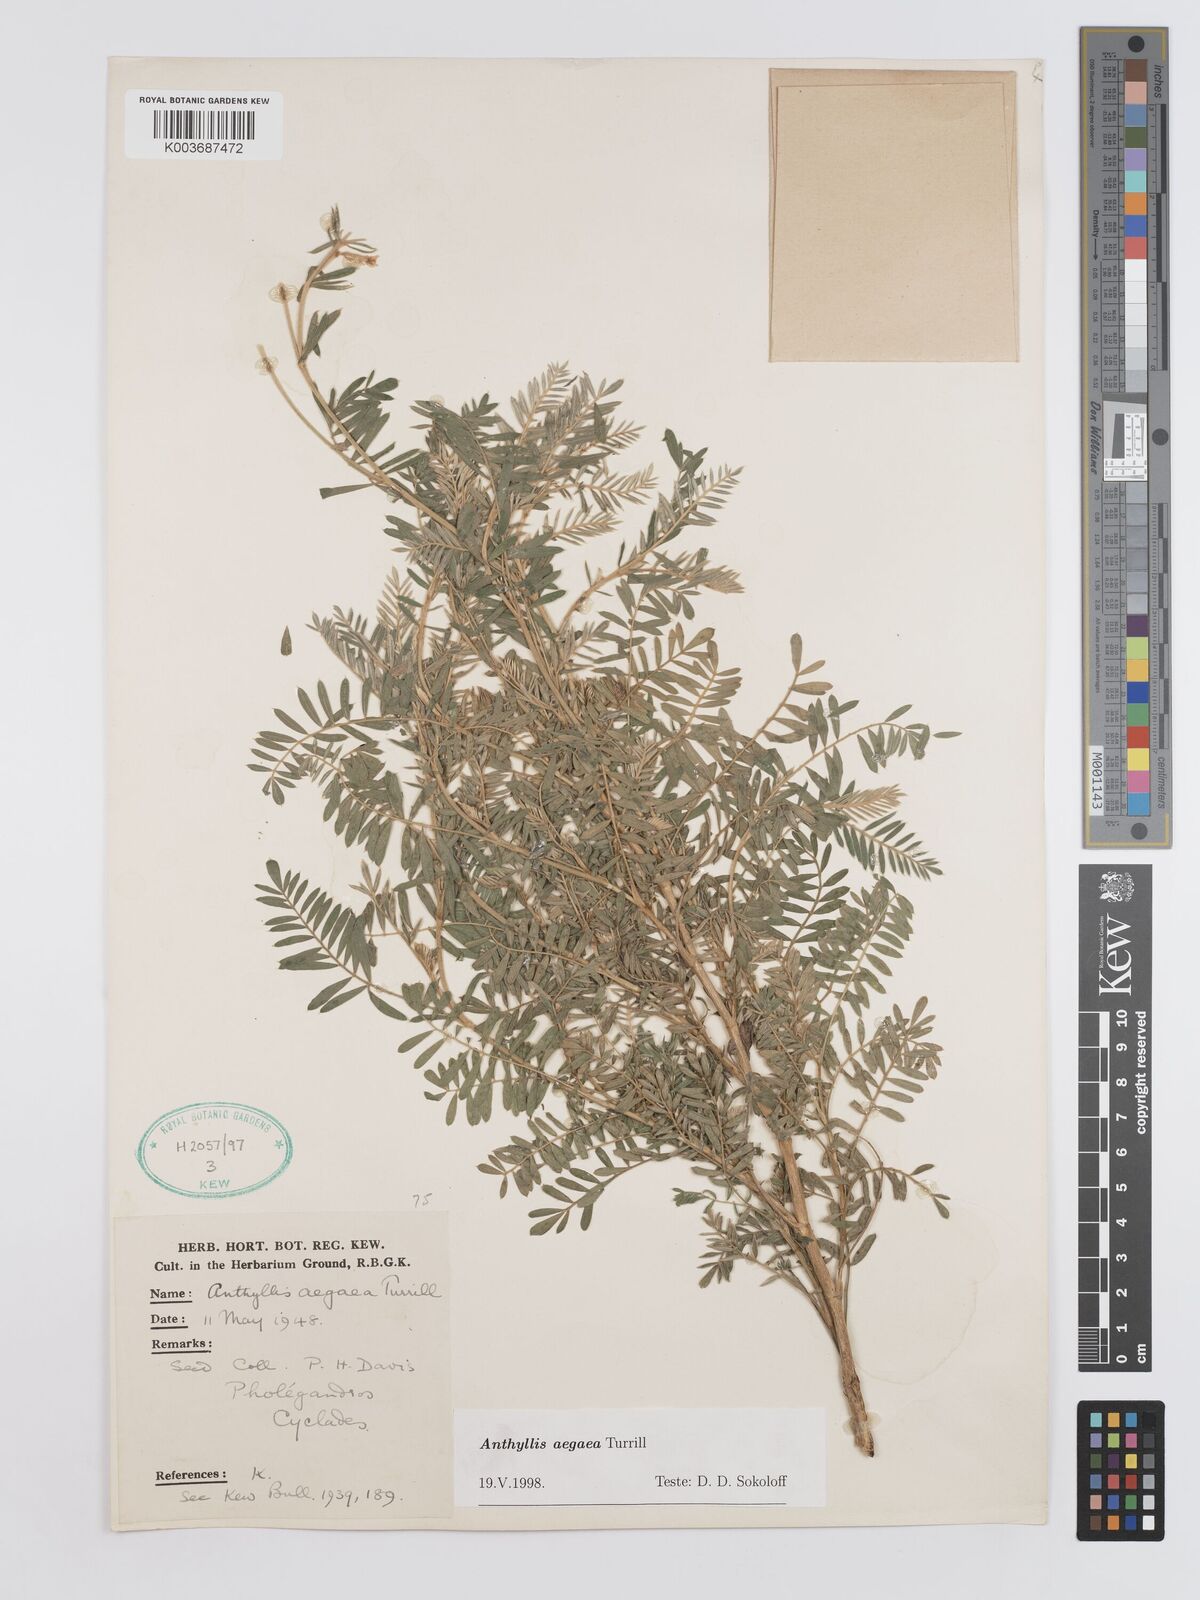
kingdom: Plantae
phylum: Tracheophyta
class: Magnoliopsida
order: Fabales
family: Fabaceae
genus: Anthyllis
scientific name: Anthyllis splendens
